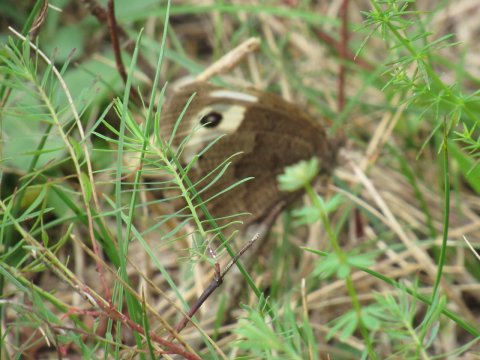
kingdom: Animalia
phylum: Arthropoda
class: Insecta
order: Lepidoptera
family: Nymphalidae
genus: Cercyonis
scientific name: Cercyonis pegala
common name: Common Wood-Nymph
